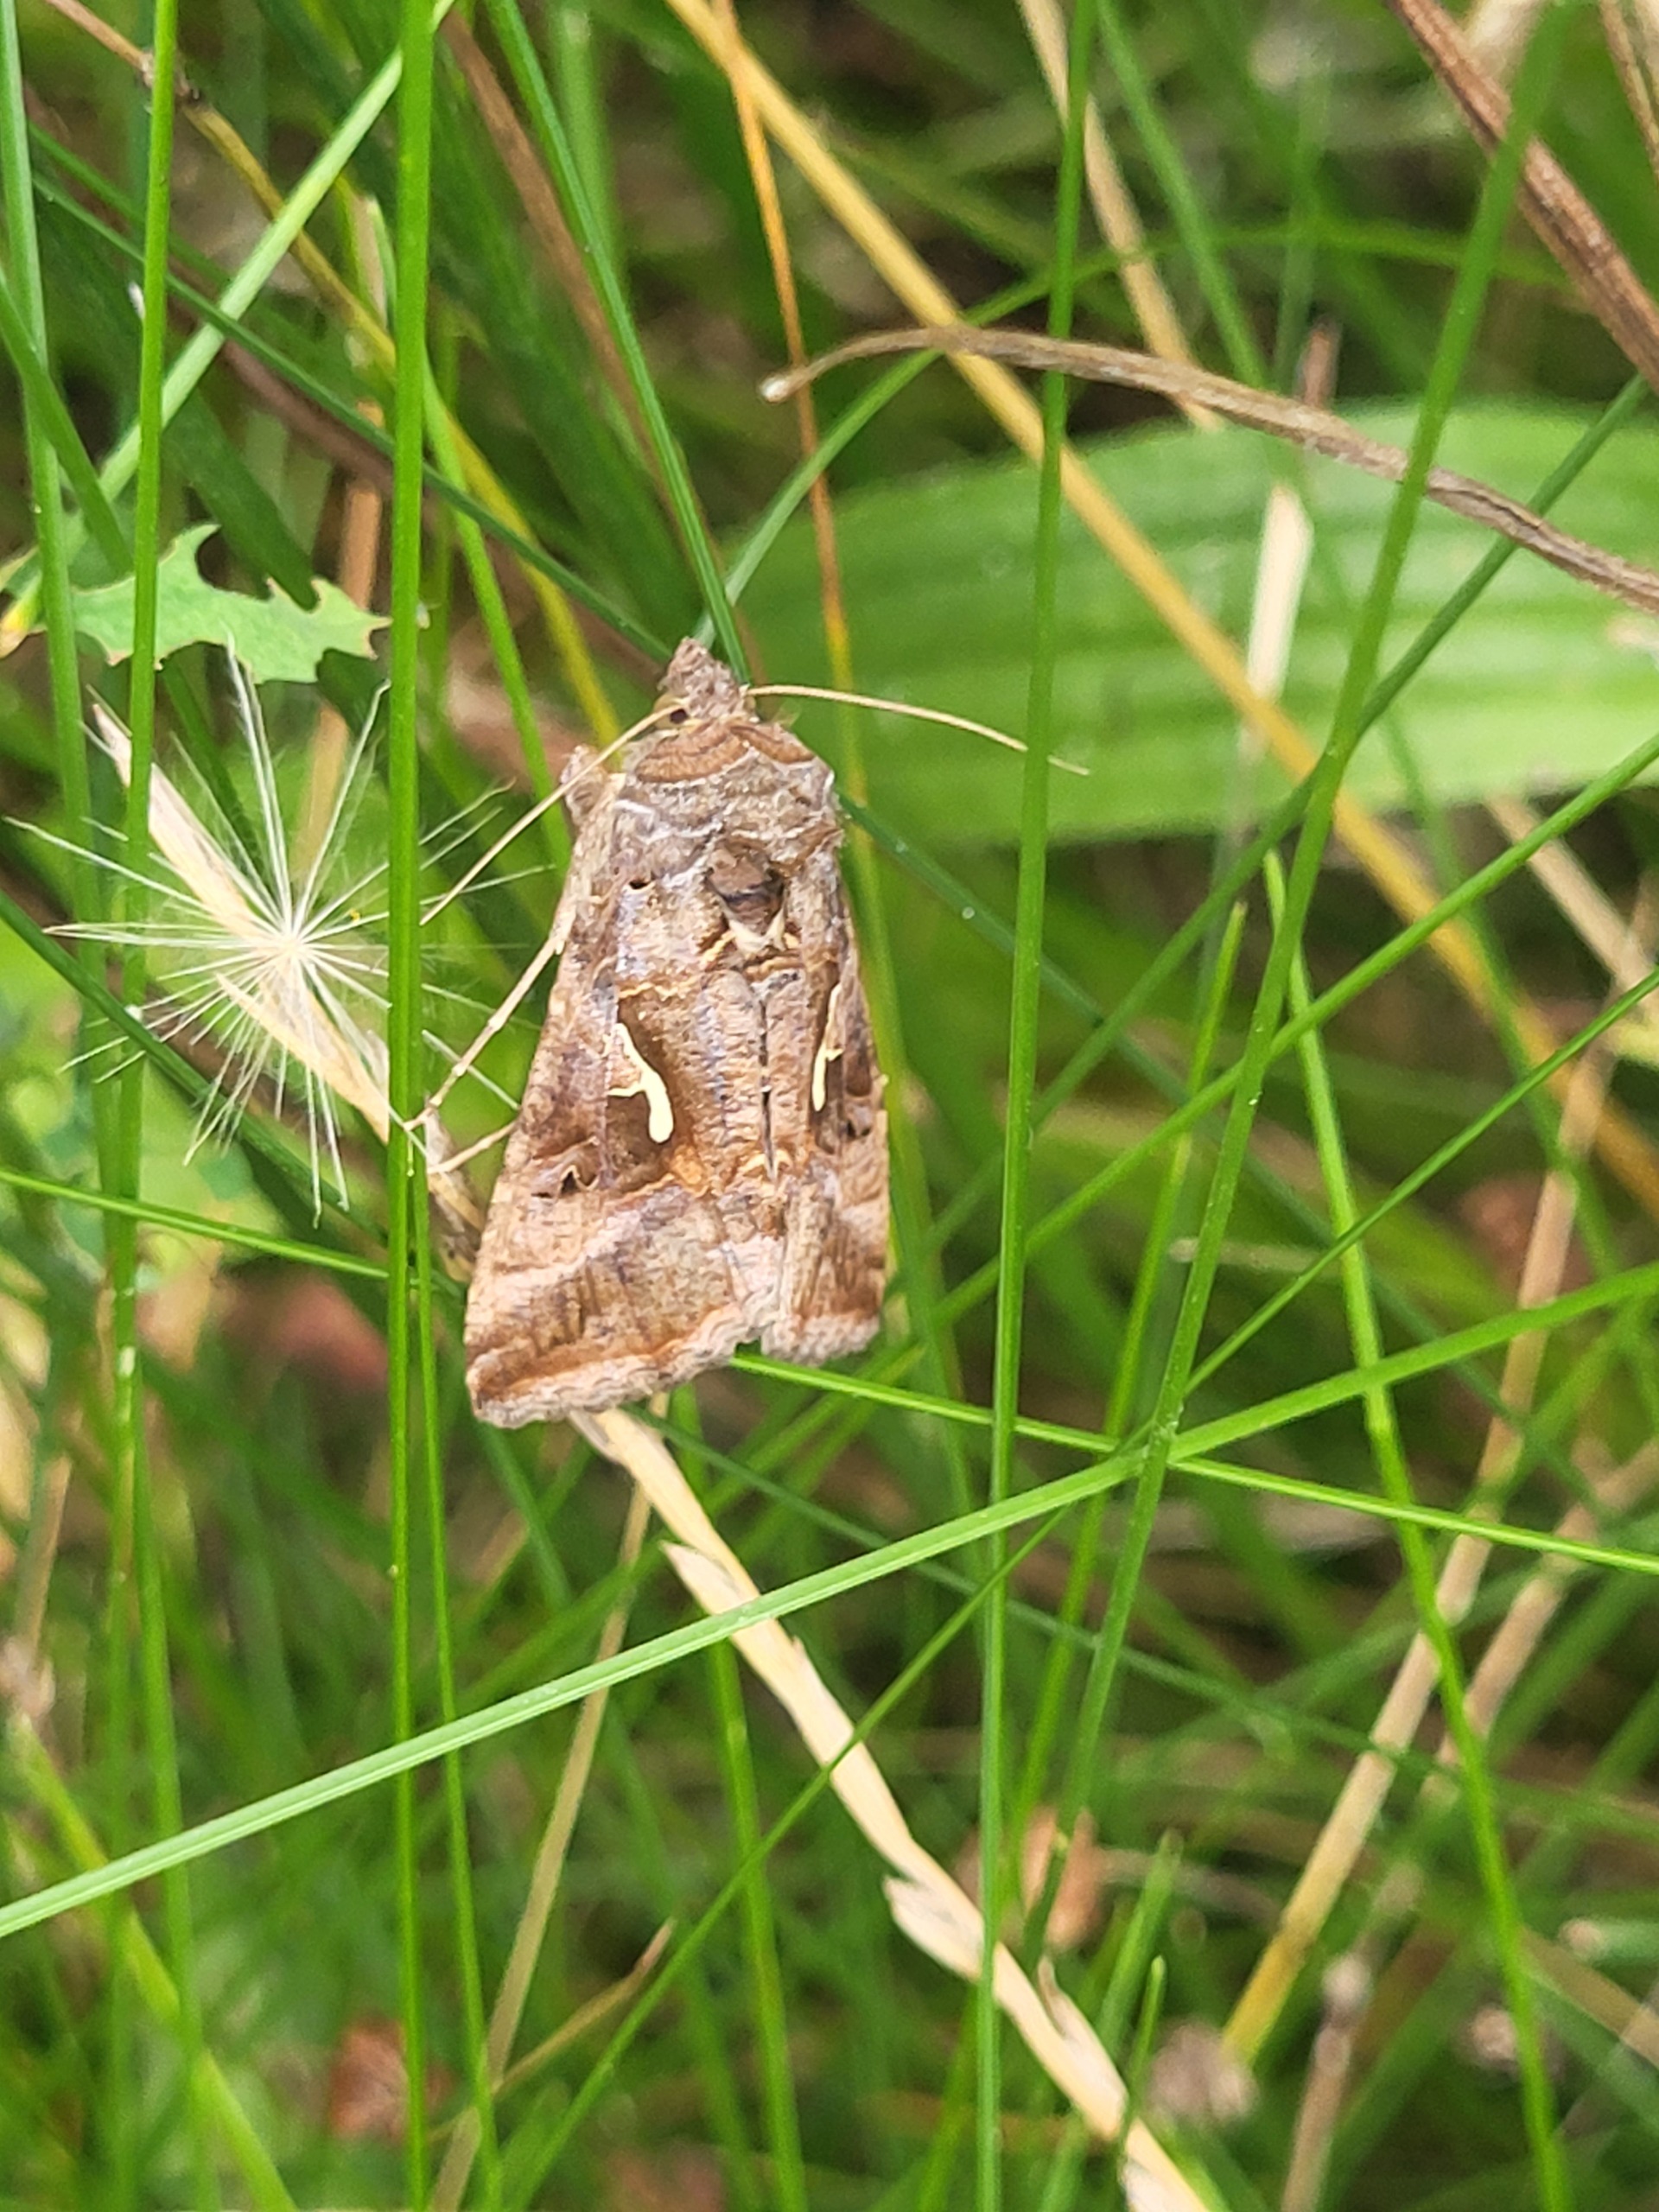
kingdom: Animalia
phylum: Arthropoda
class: Insecta
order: Lepidoptera
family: Noctuidae
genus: Autographa
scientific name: Autographa gamma
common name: Gammaugle
